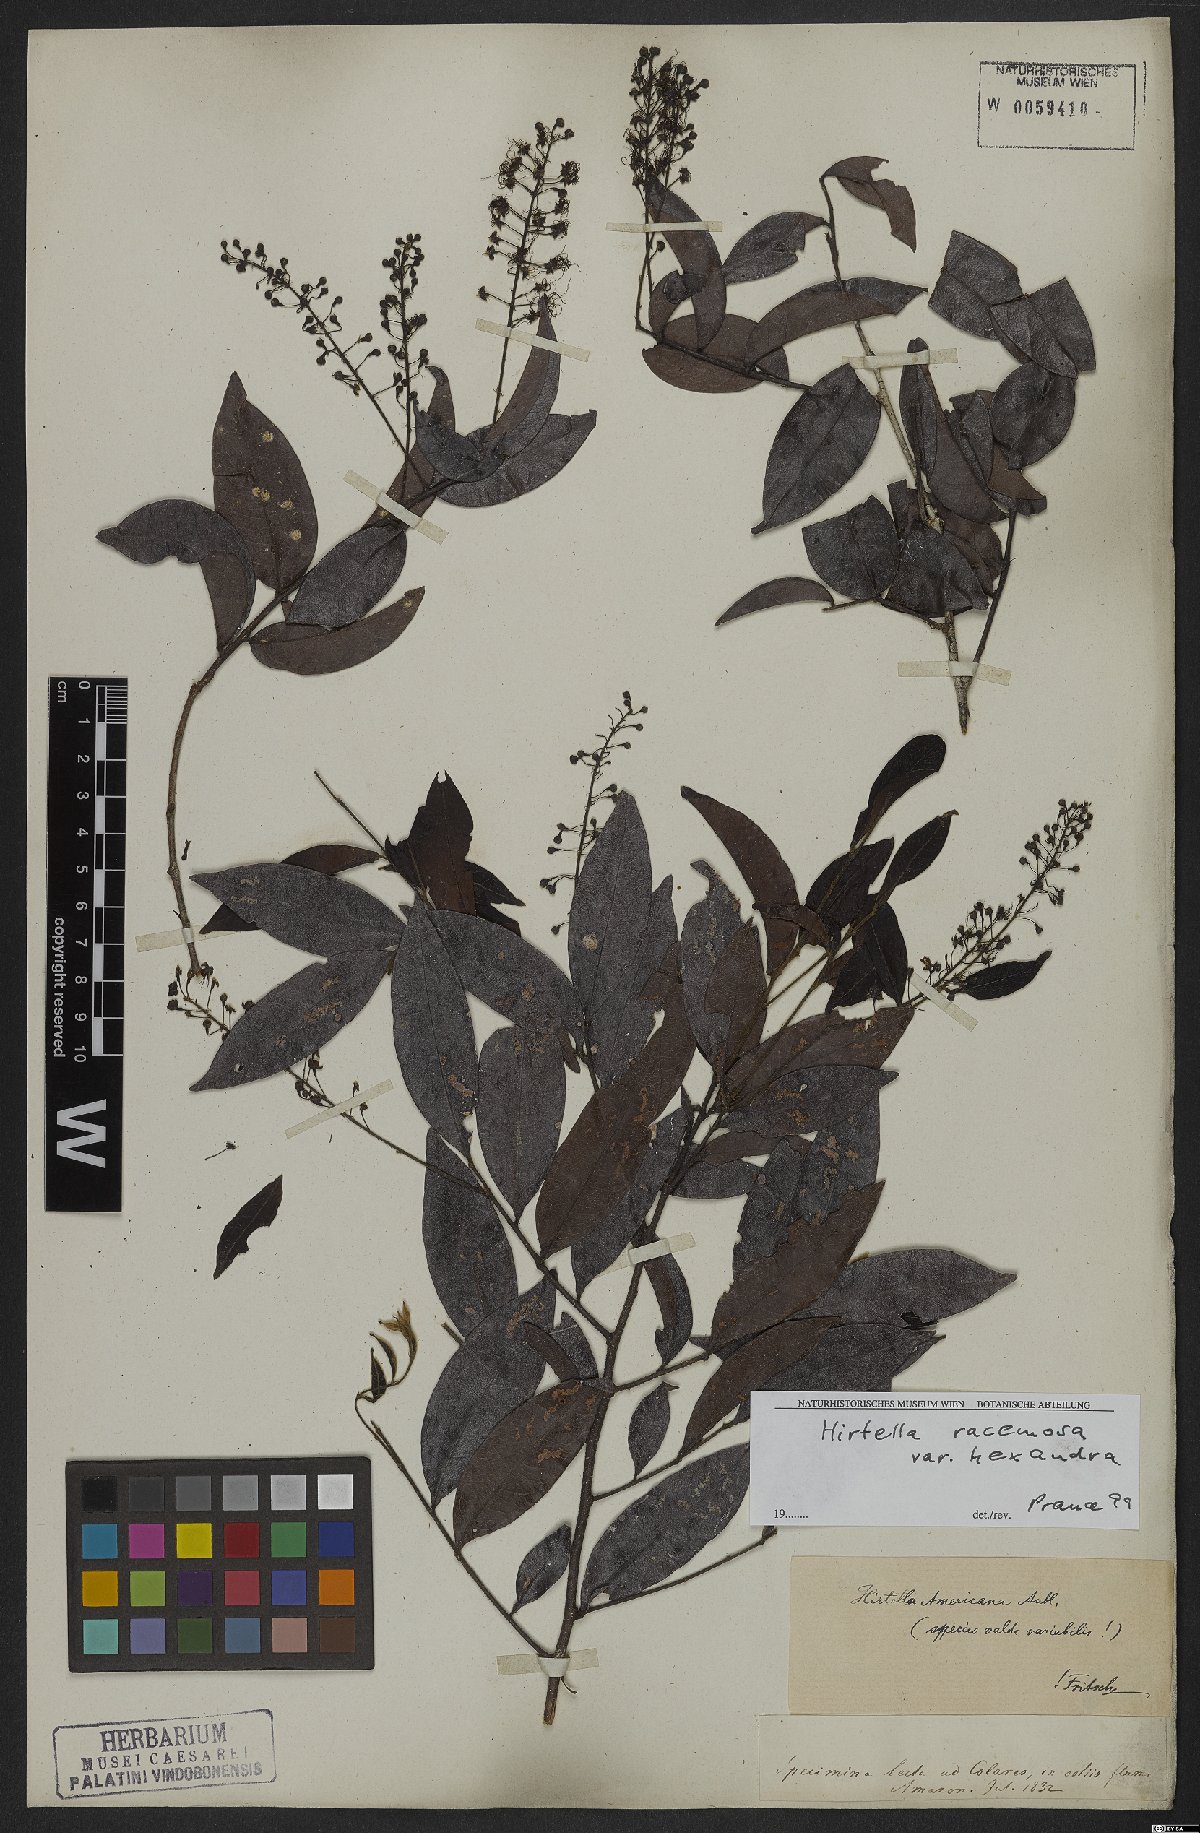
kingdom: Plantae
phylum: Tracheophyta
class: Magnoliopsida
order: Malpighiales
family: Chrysobalanaceae
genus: Hirtella
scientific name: Hirtella racemosa
